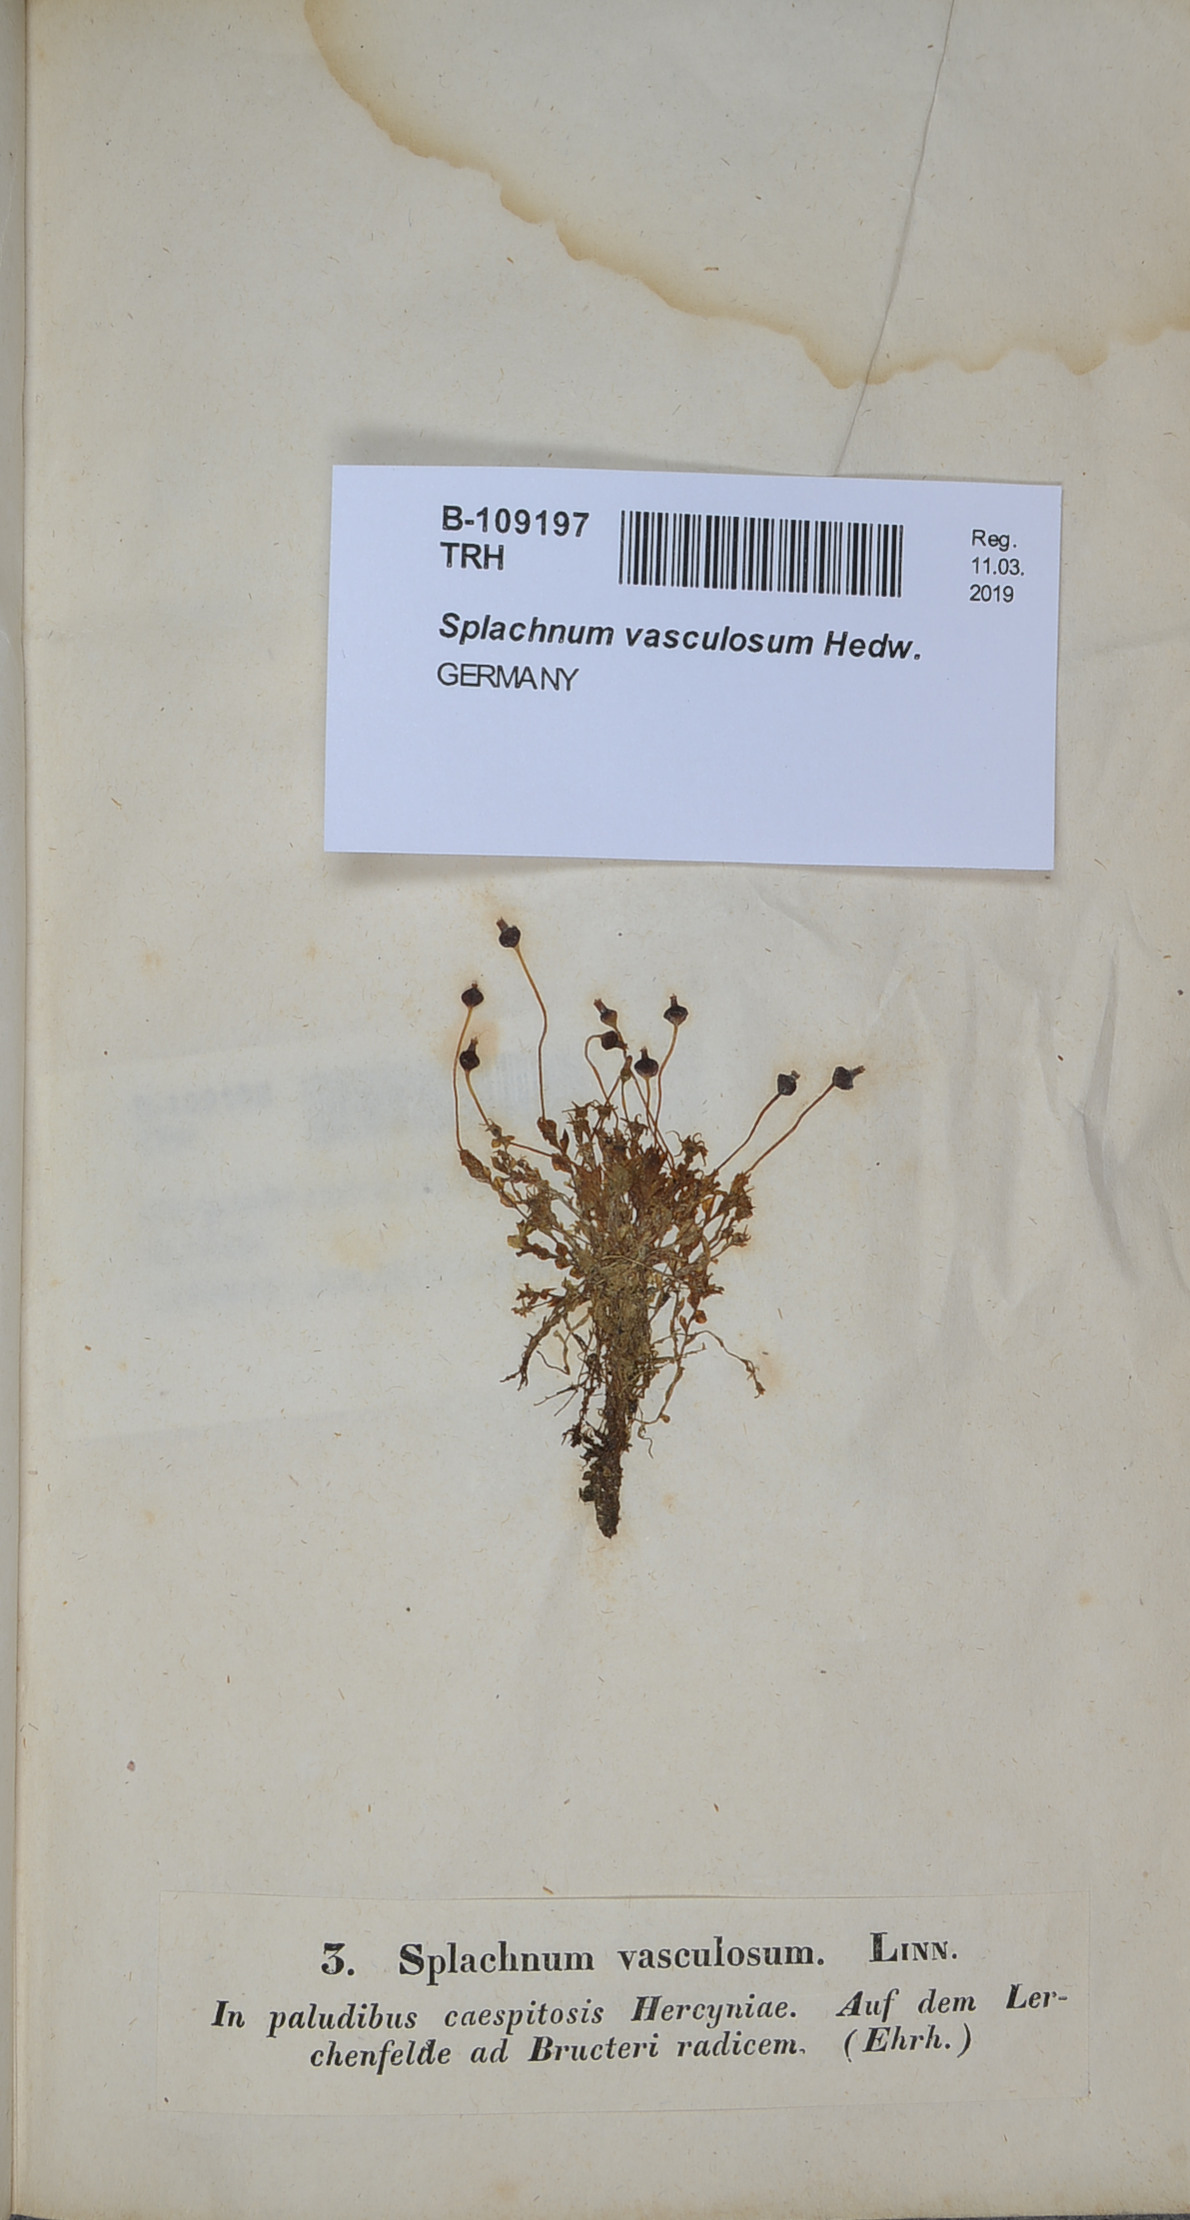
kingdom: Plantae
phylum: Bryophyta
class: Bryopsida
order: Splachnales
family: Splachnaceae
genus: Splachnum
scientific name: Splachnum vasculosum
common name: Rugged dung moss
